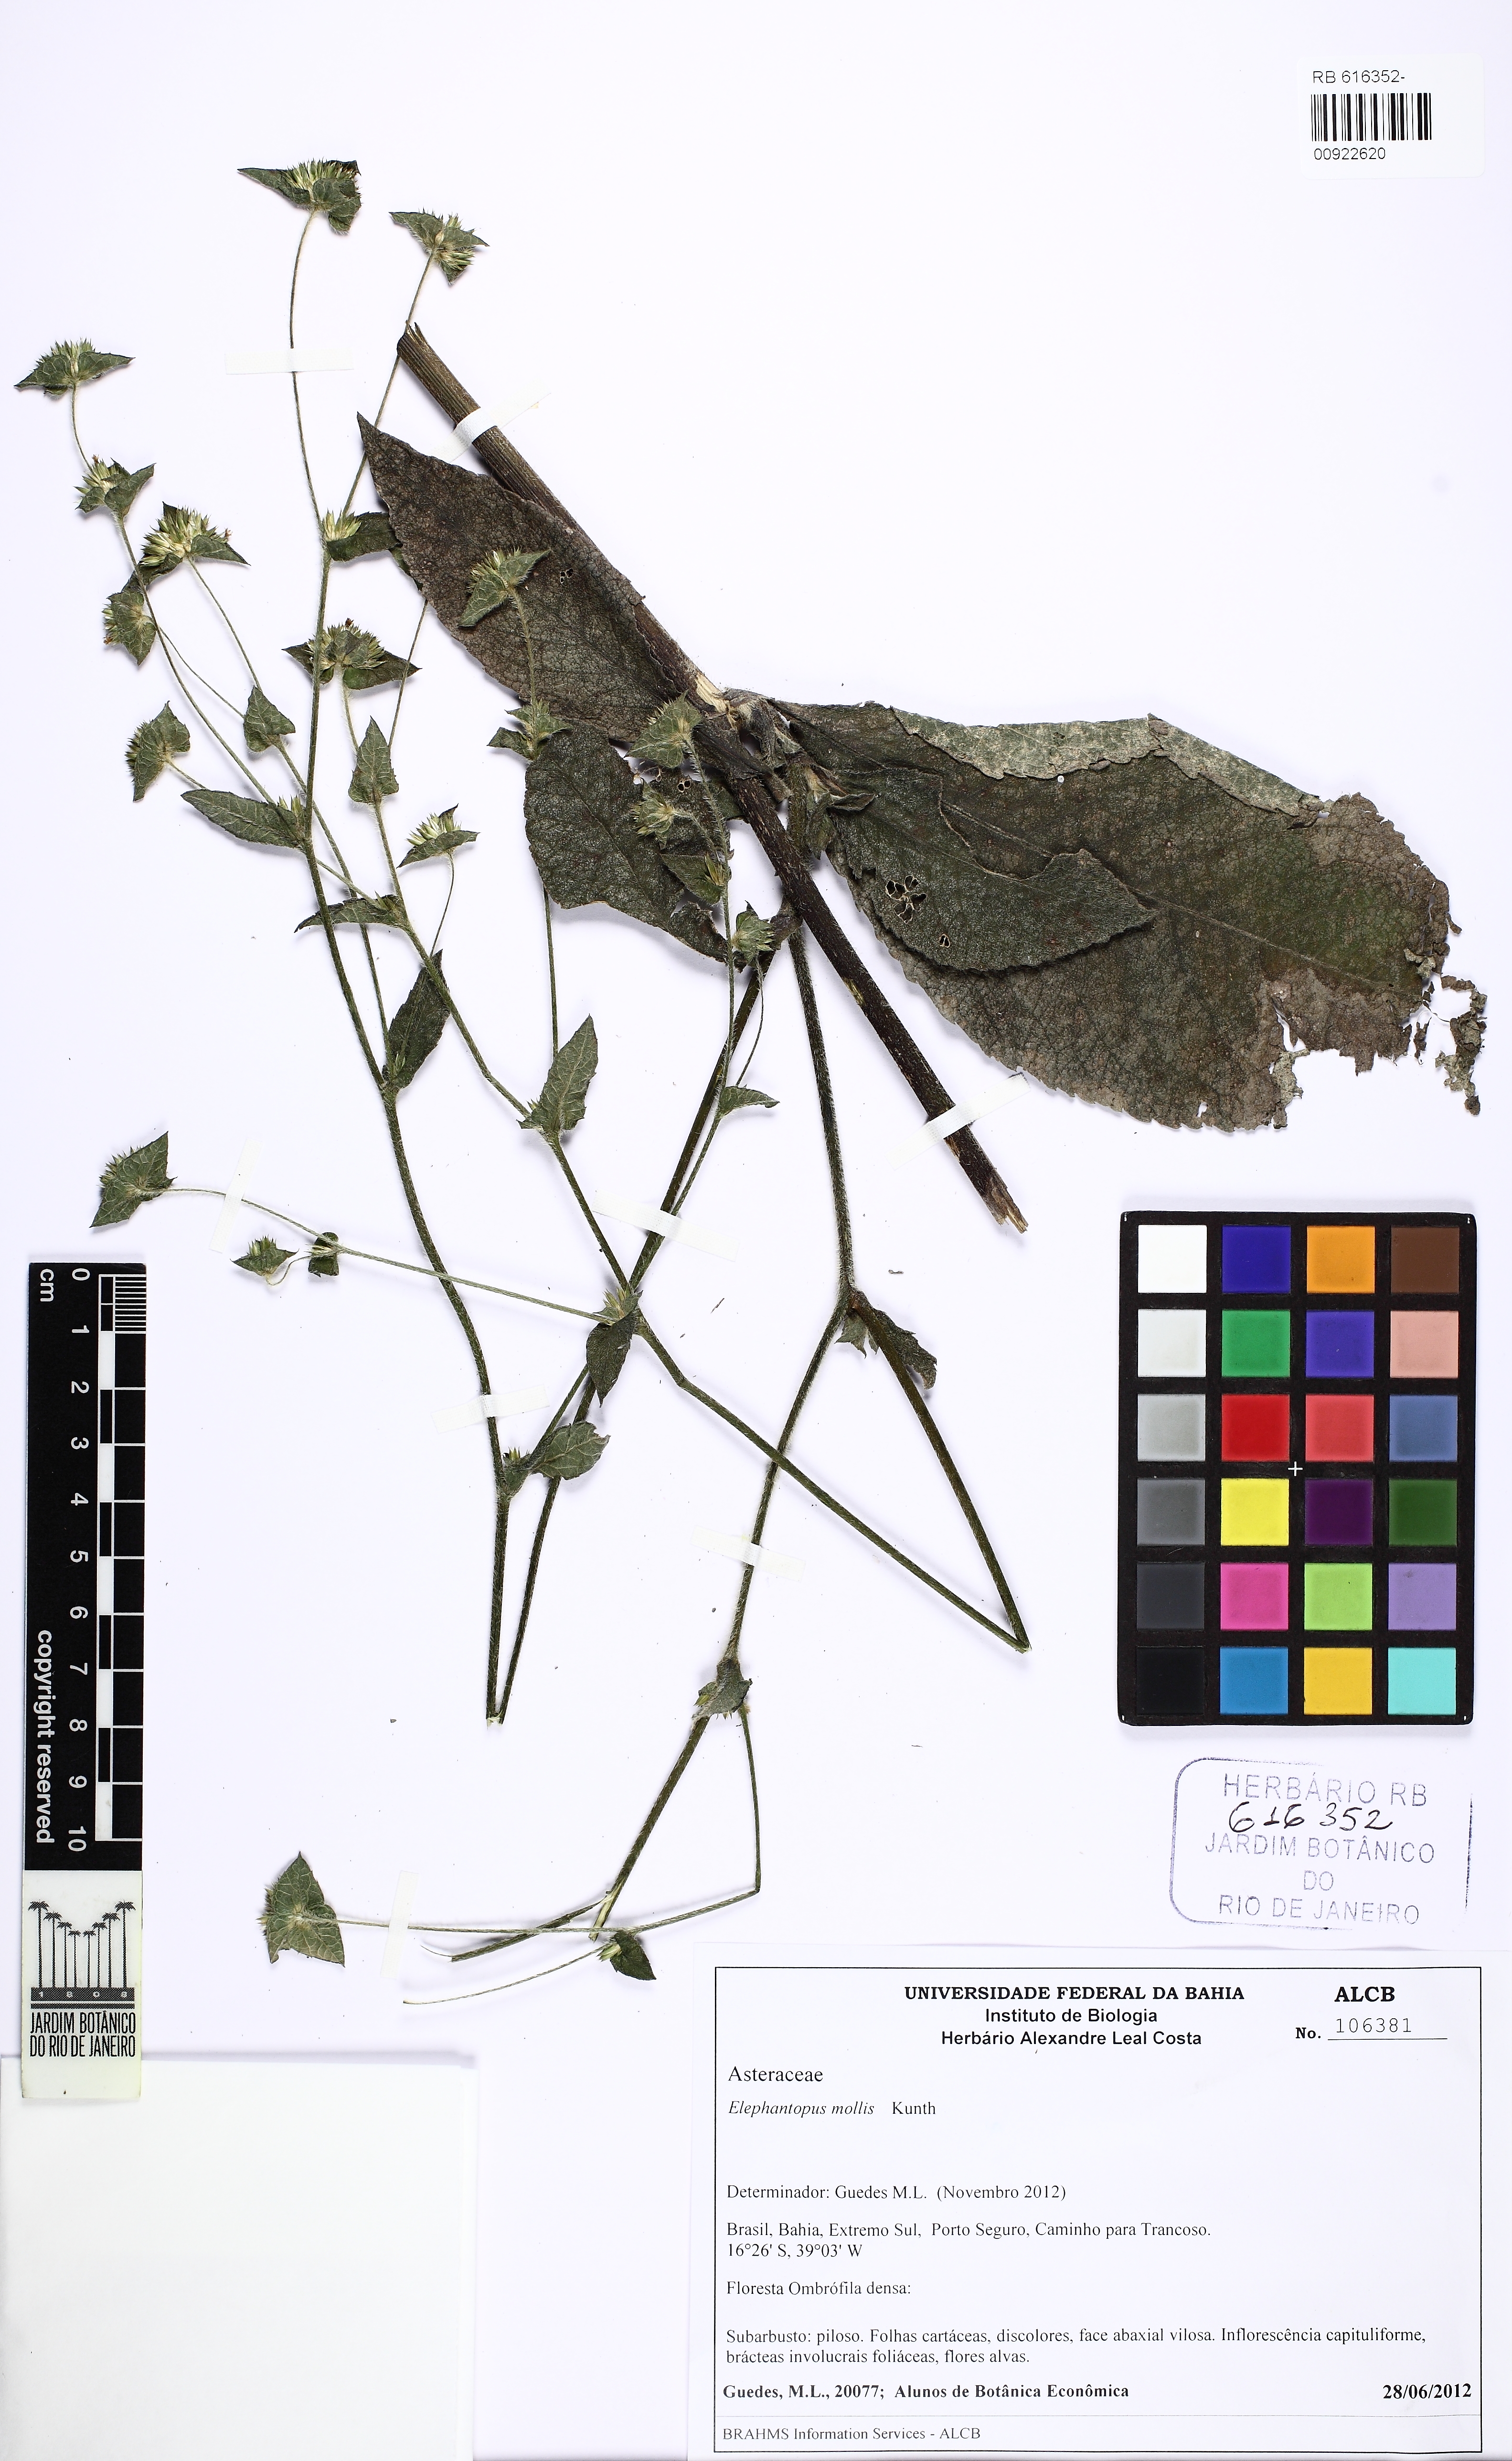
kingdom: Plantae
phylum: Tracheophyta
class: Magnoliopsida
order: Asterales
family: Asteraceae
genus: Elephantopus
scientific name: Elephantopus mollis
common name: Soft elephantsfoot
